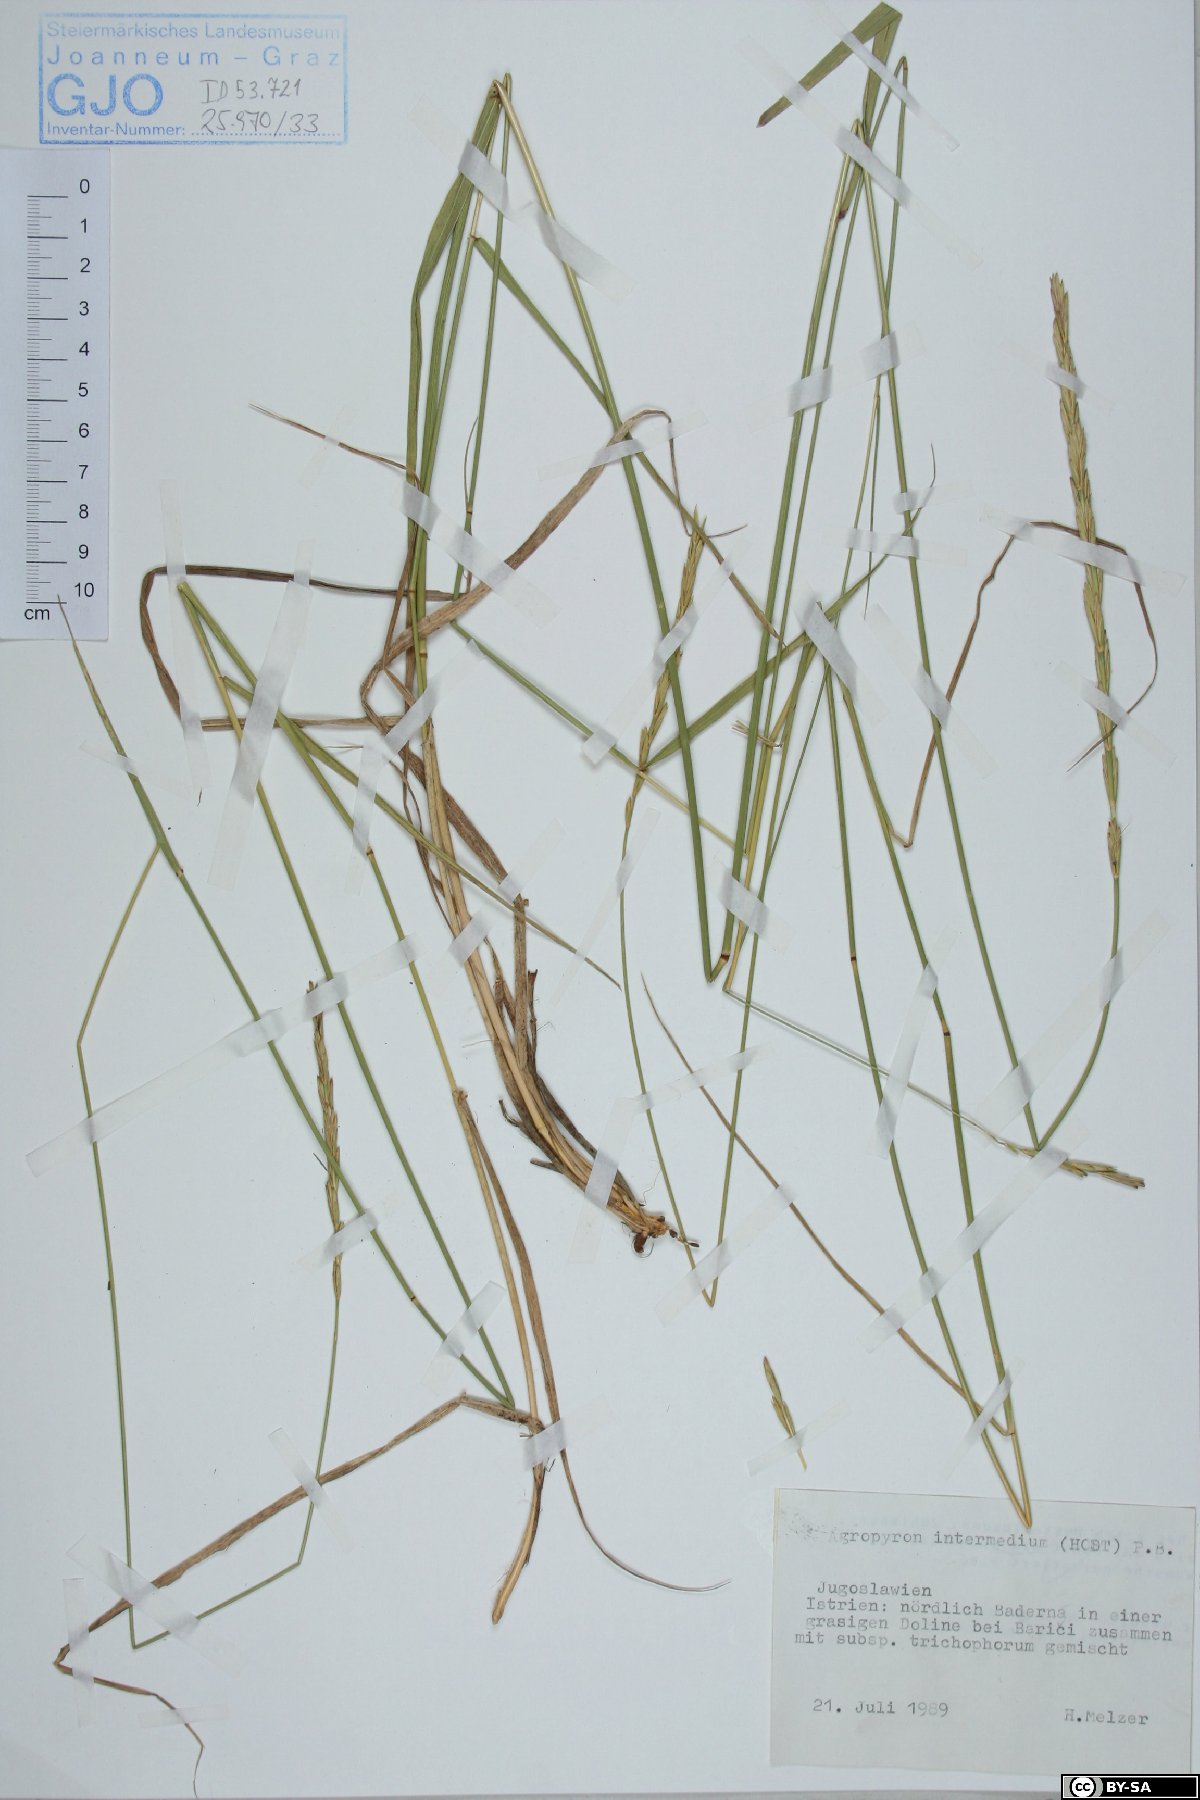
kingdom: Plantae
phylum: Tracheophyta
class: Liliopsida
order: Poales
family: Poaceae
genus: Thinopyrum
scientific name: Thinopyrum intermedium
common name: Intermediate wheatgrass
